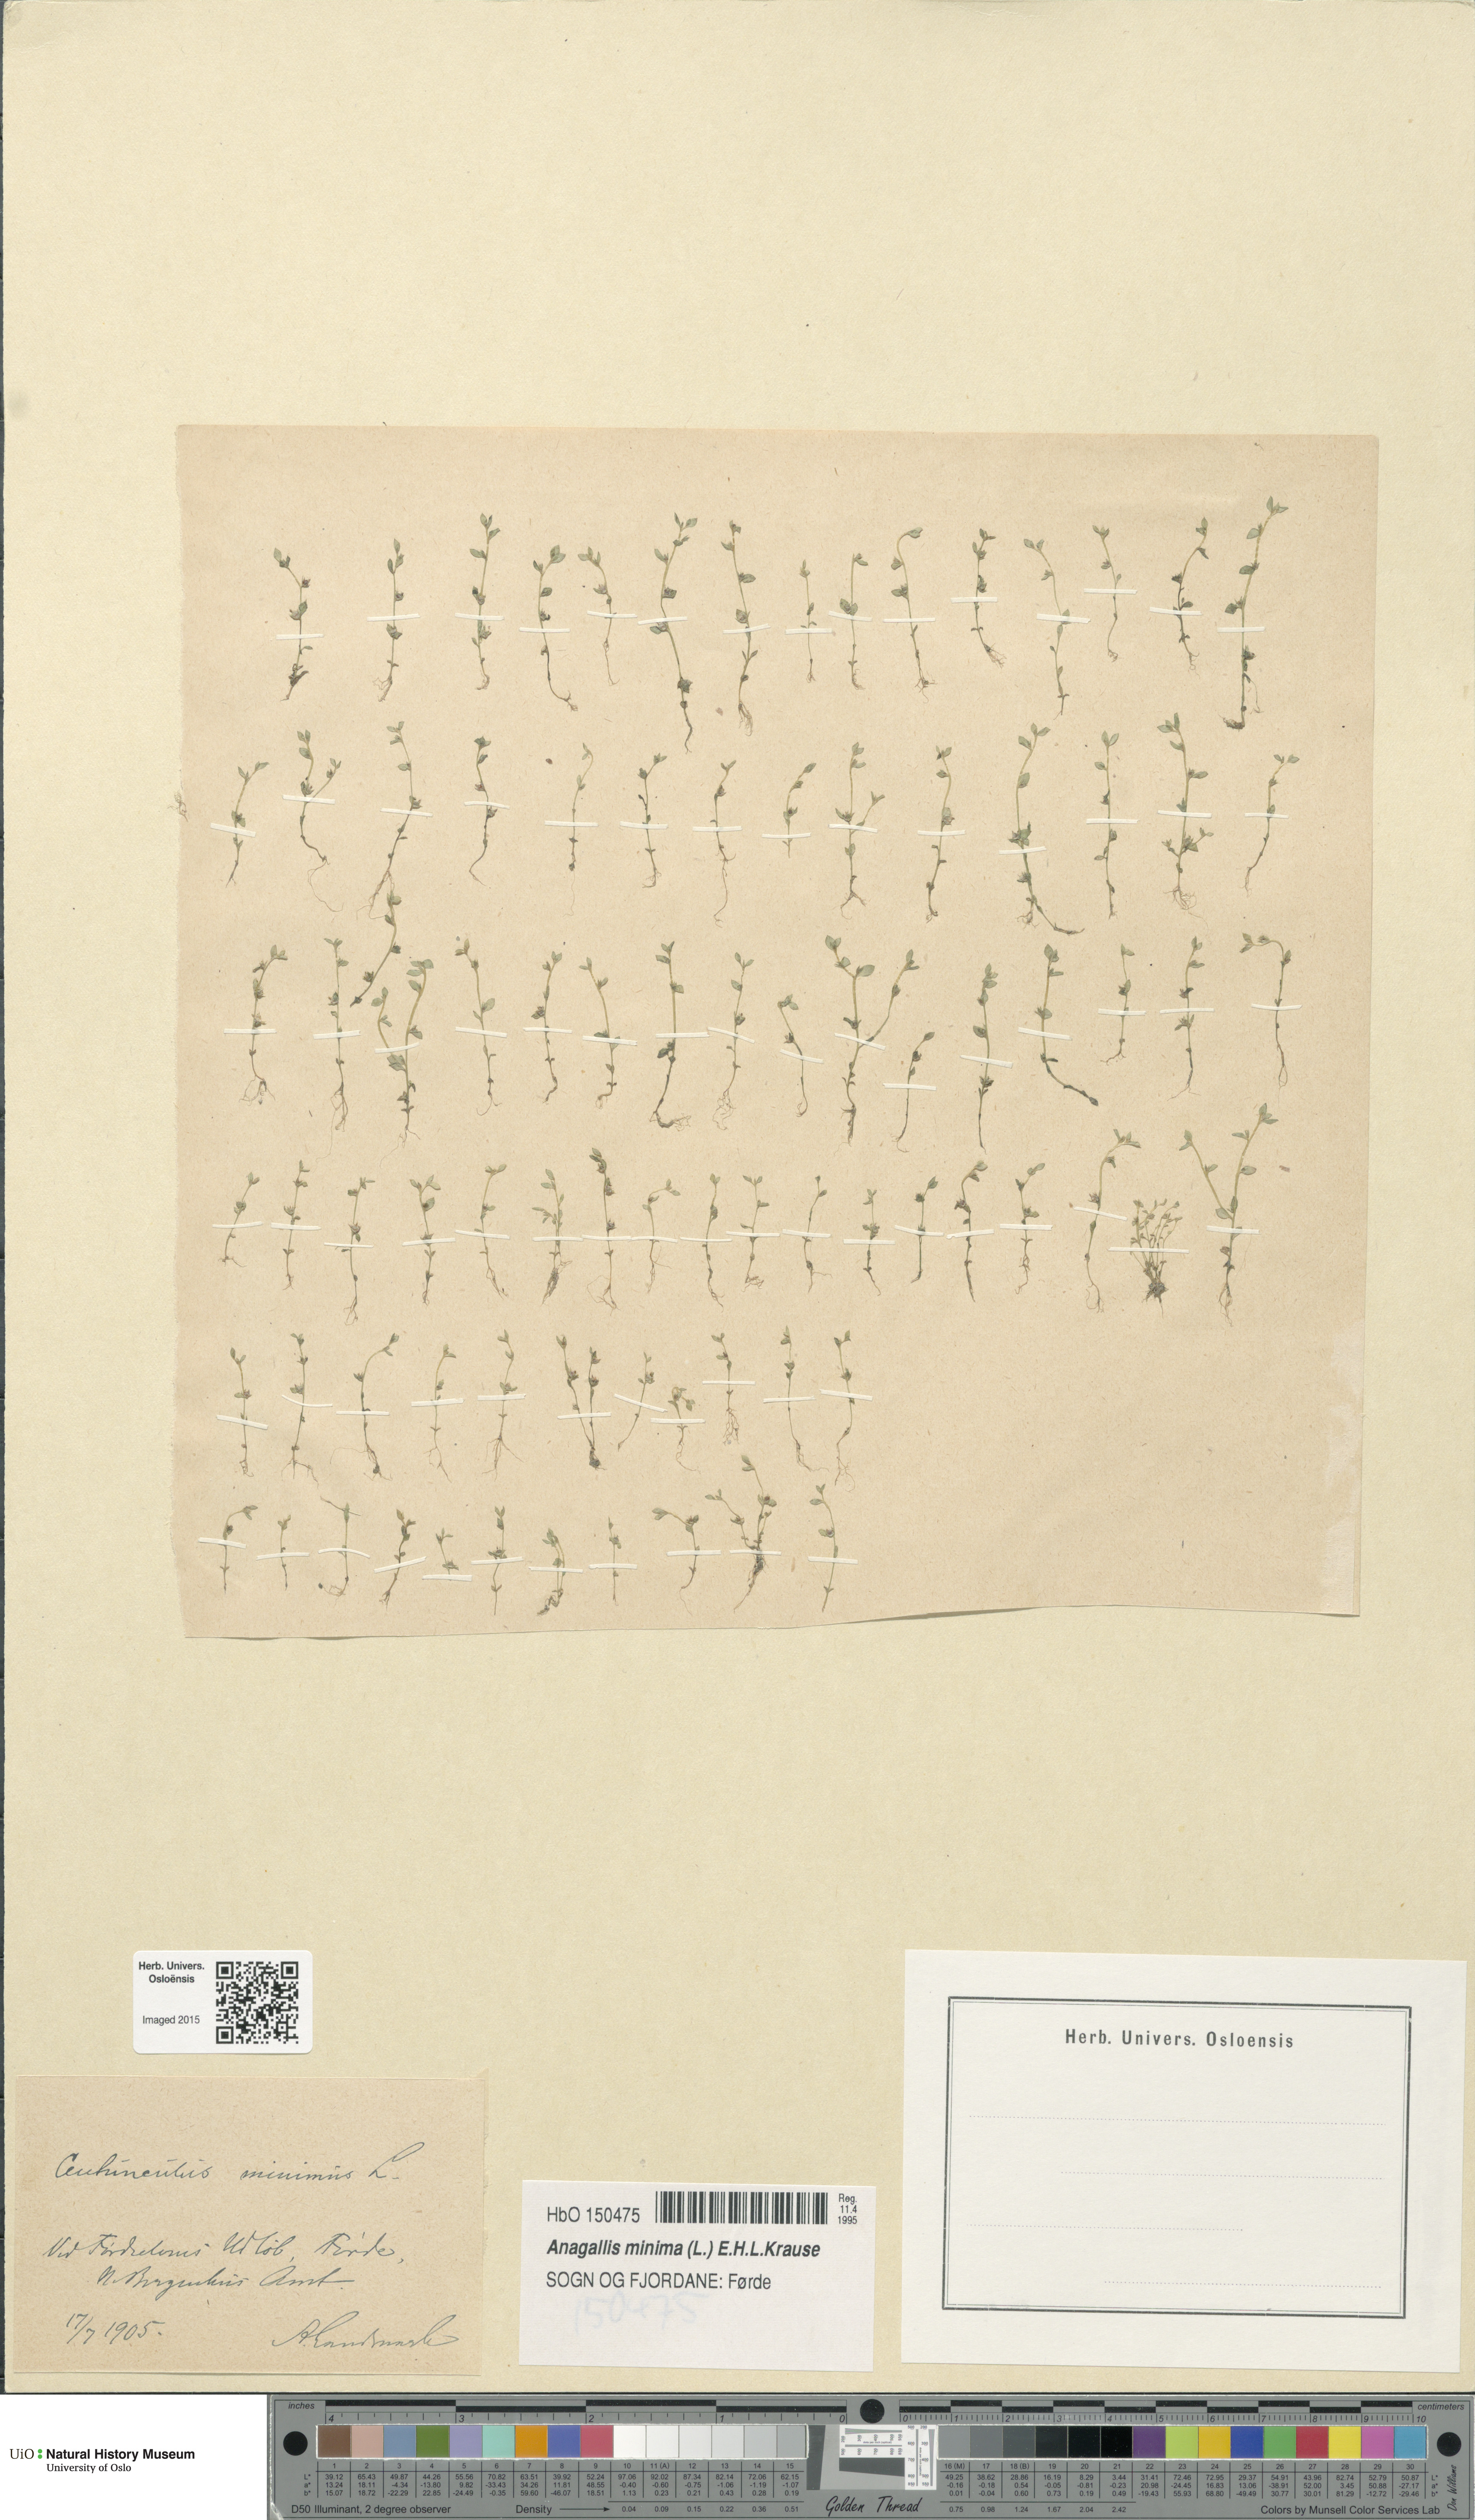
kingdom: Plantae
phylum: Tracheophyta
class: Magnoliopsida
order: Ericales
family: Primulaceae
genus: Lysimachia
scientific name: Lysimachia minima
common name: Chaffweed
